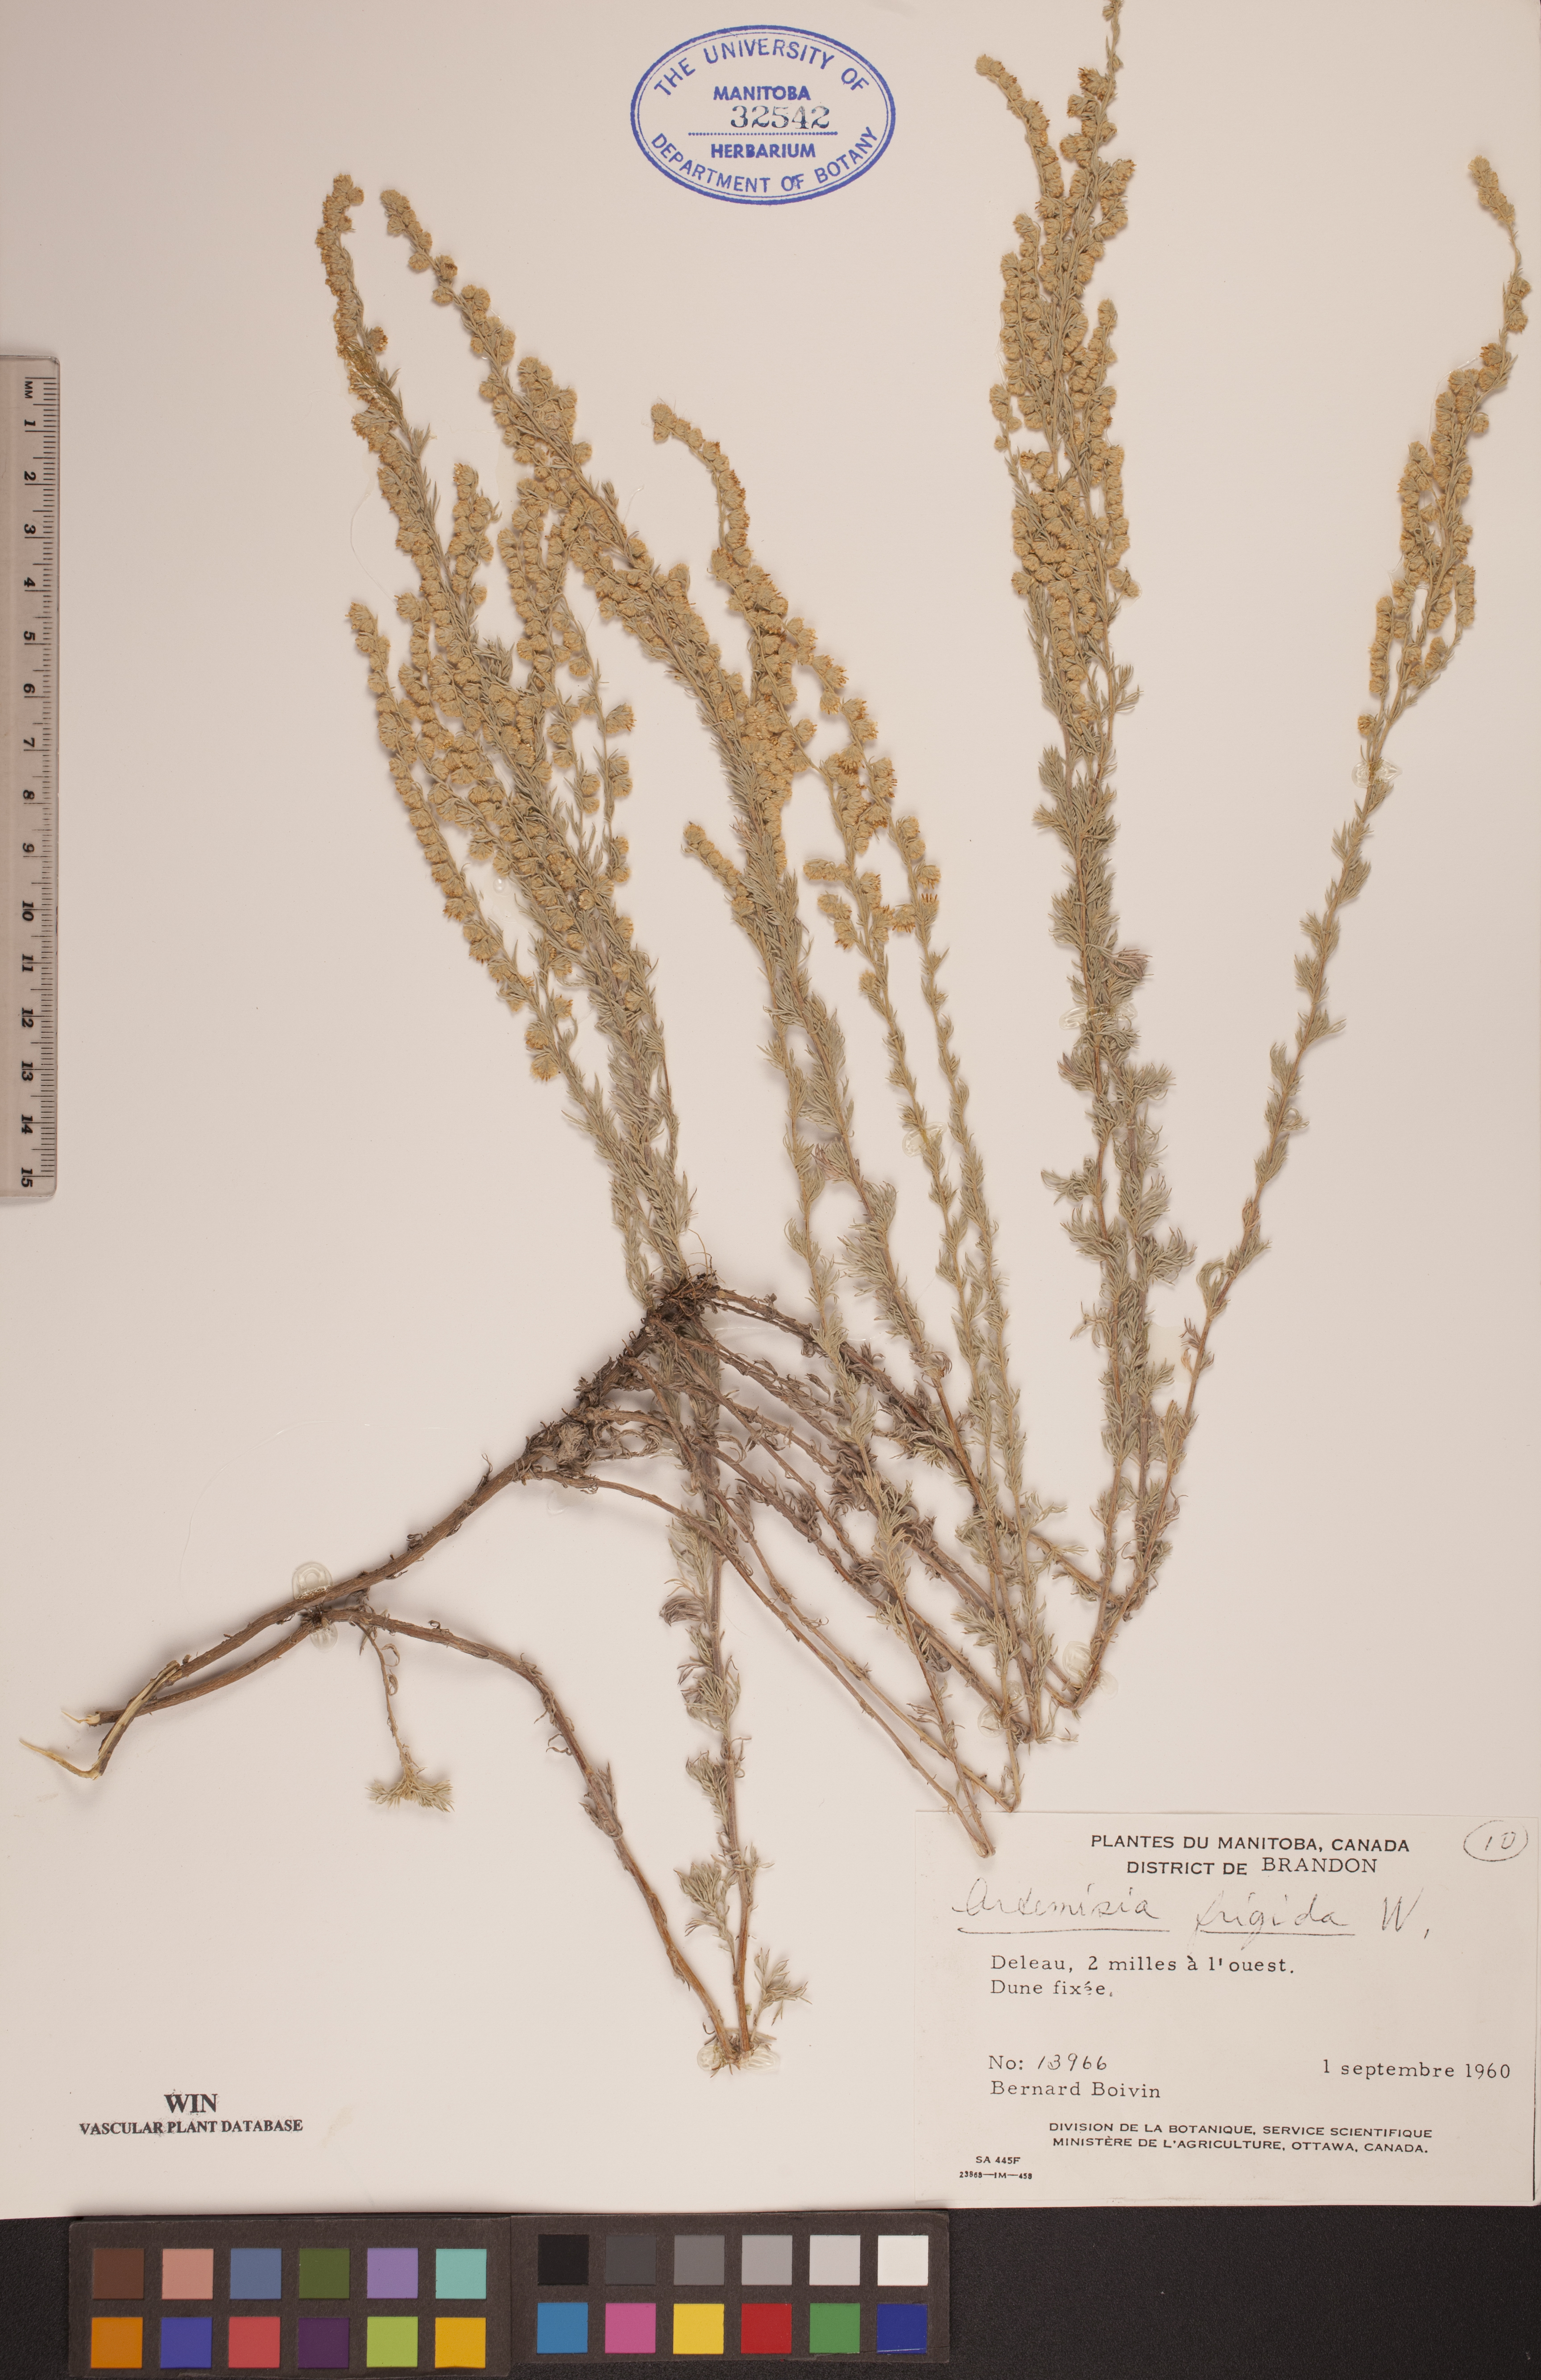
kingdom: Plantae
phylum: Tracheophyta
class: Magnoliopsida
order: Asterales
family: Asteraceae
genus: Artemisia
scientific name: Artemisia frigida
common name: Prairie sagewort
